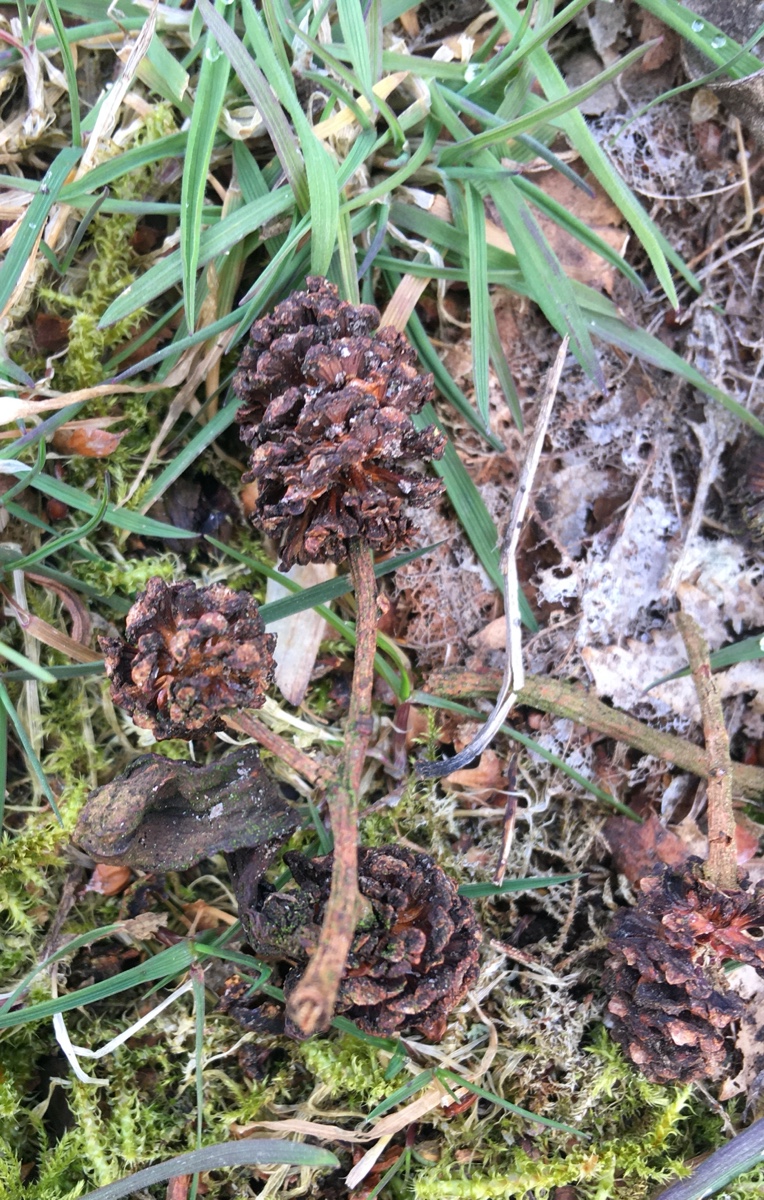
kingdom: Fungi
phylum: Ascomycota
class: Taphrinomycetes
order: Taphrinales
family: Taphrinaceae
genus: Taphrina
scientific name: Taphrina alni
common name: Alder tongue
